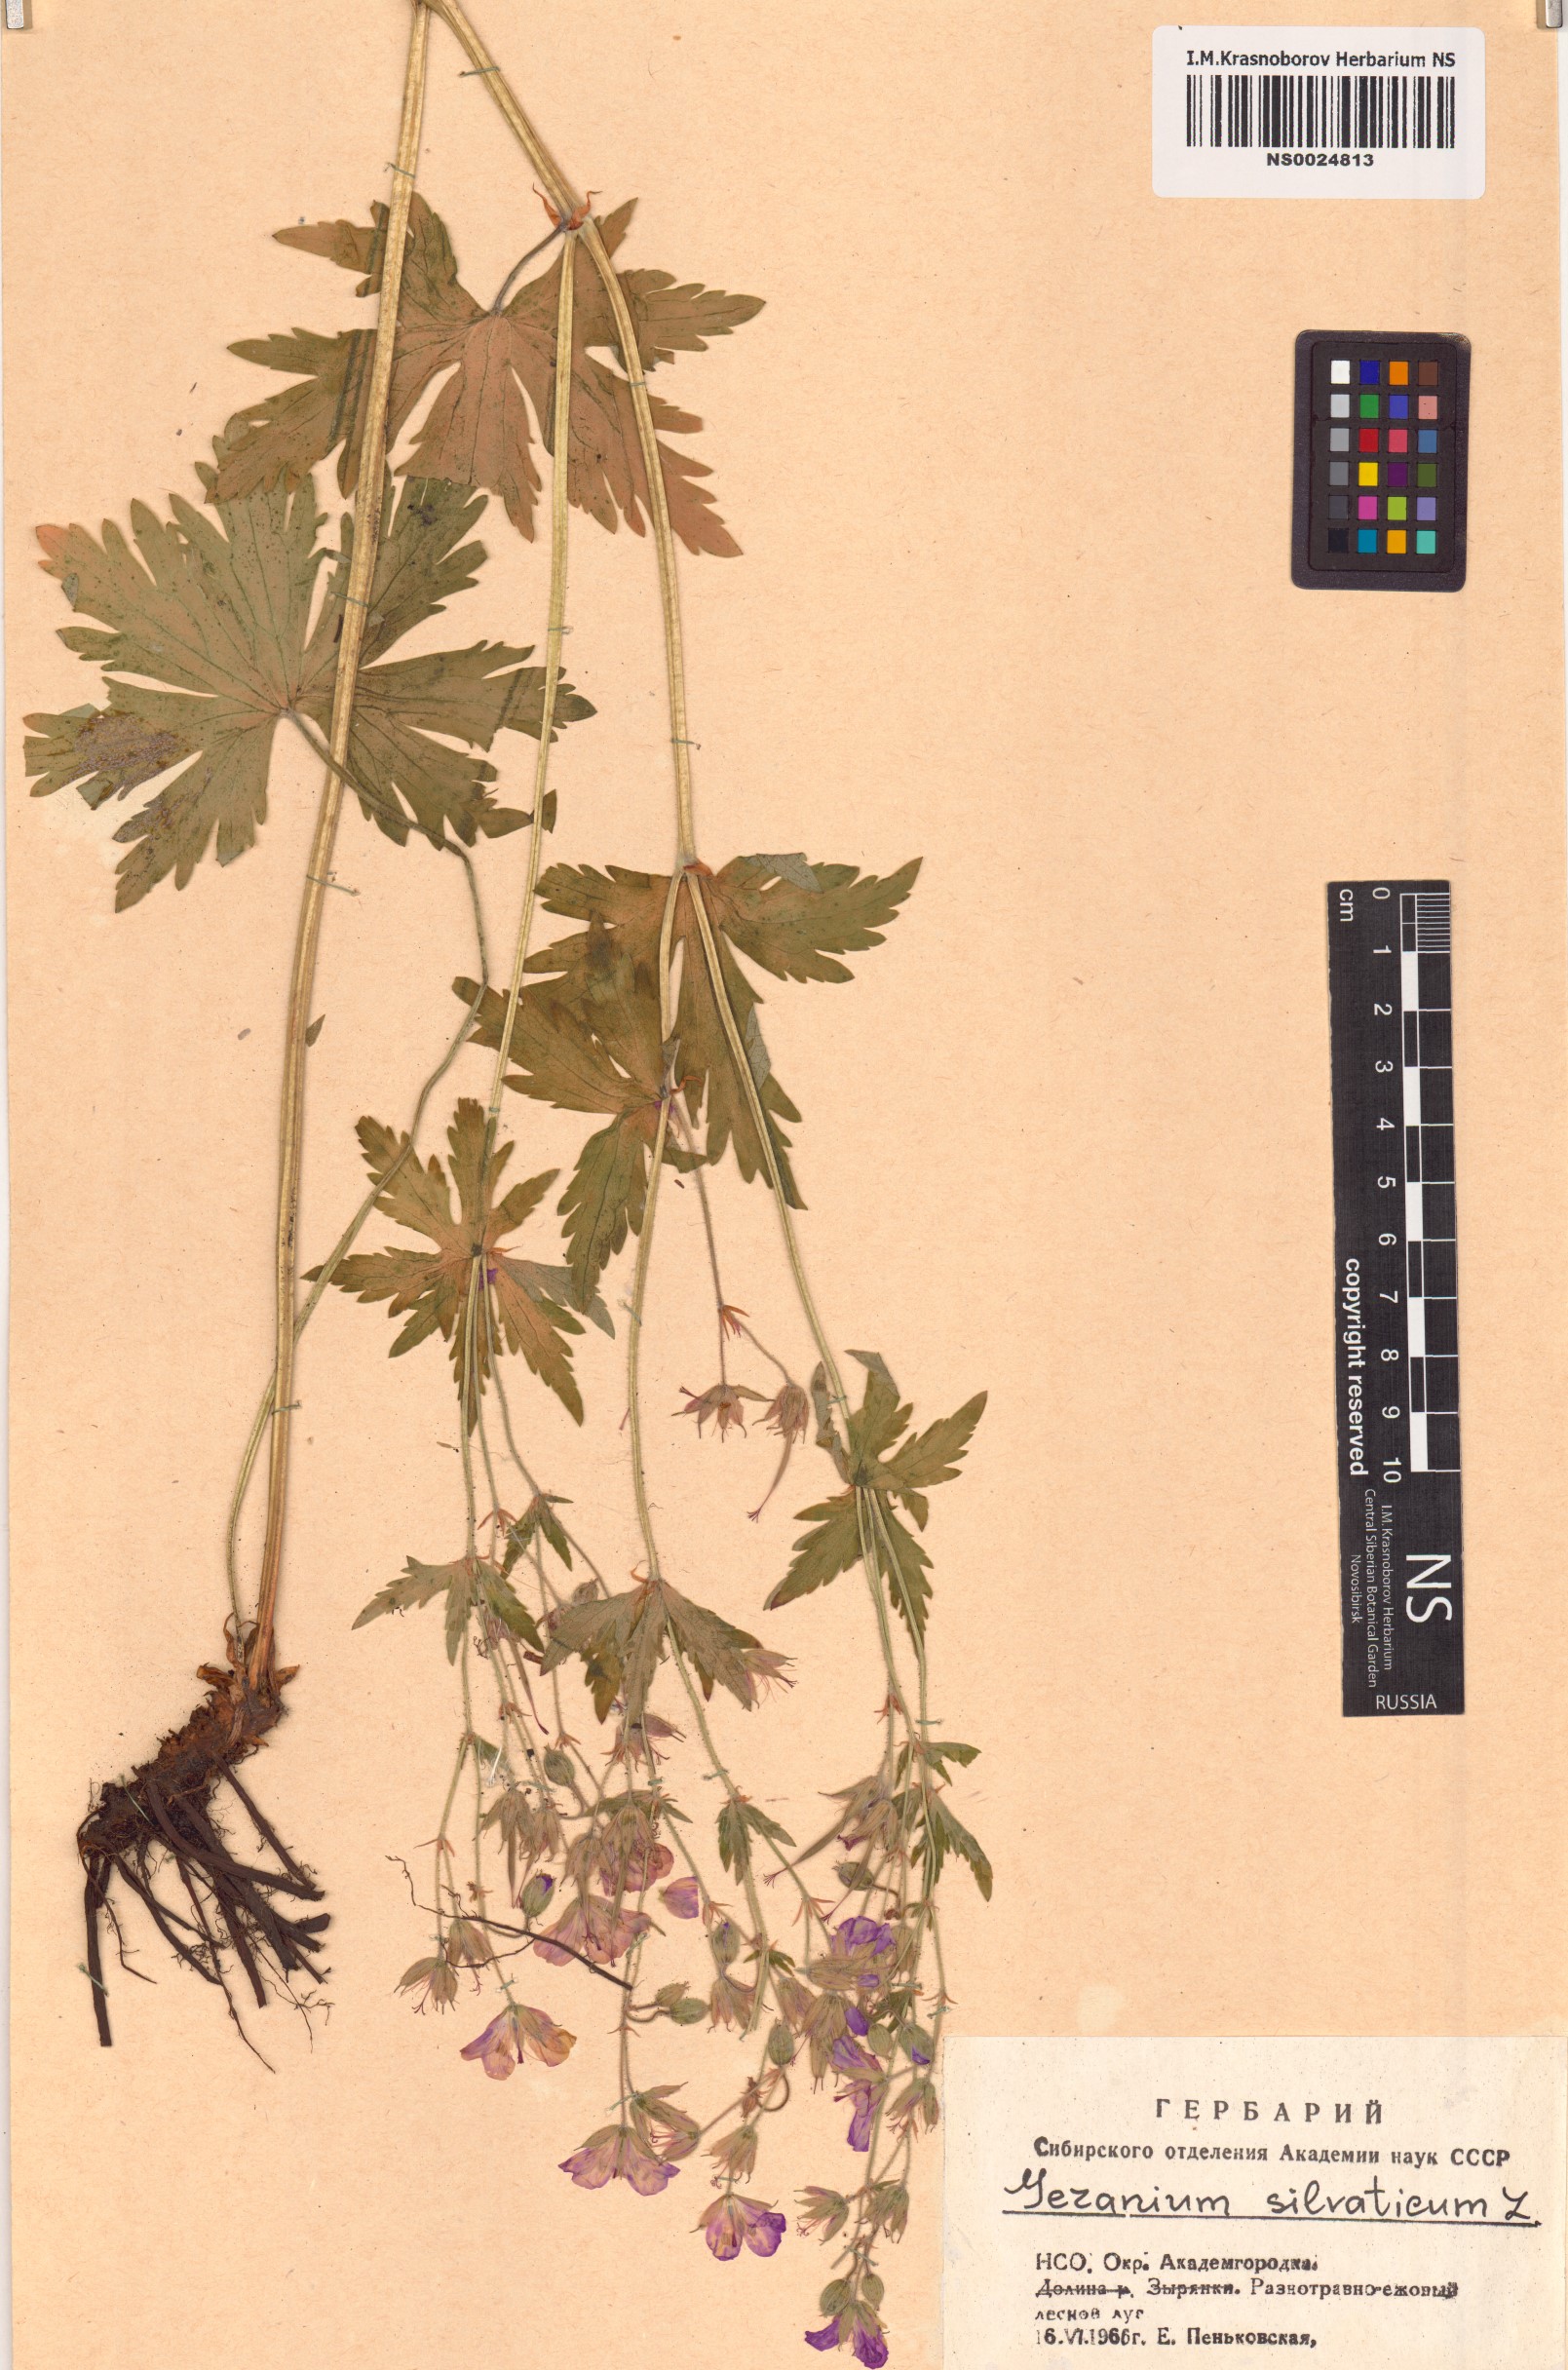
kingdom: Plantae
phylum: Tracheophyta
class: Magnoliopsida
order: Geraniales
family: Geraniaceae
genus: Geranium
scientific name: Geranium sylvaticum
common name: Wood crane's-bill
